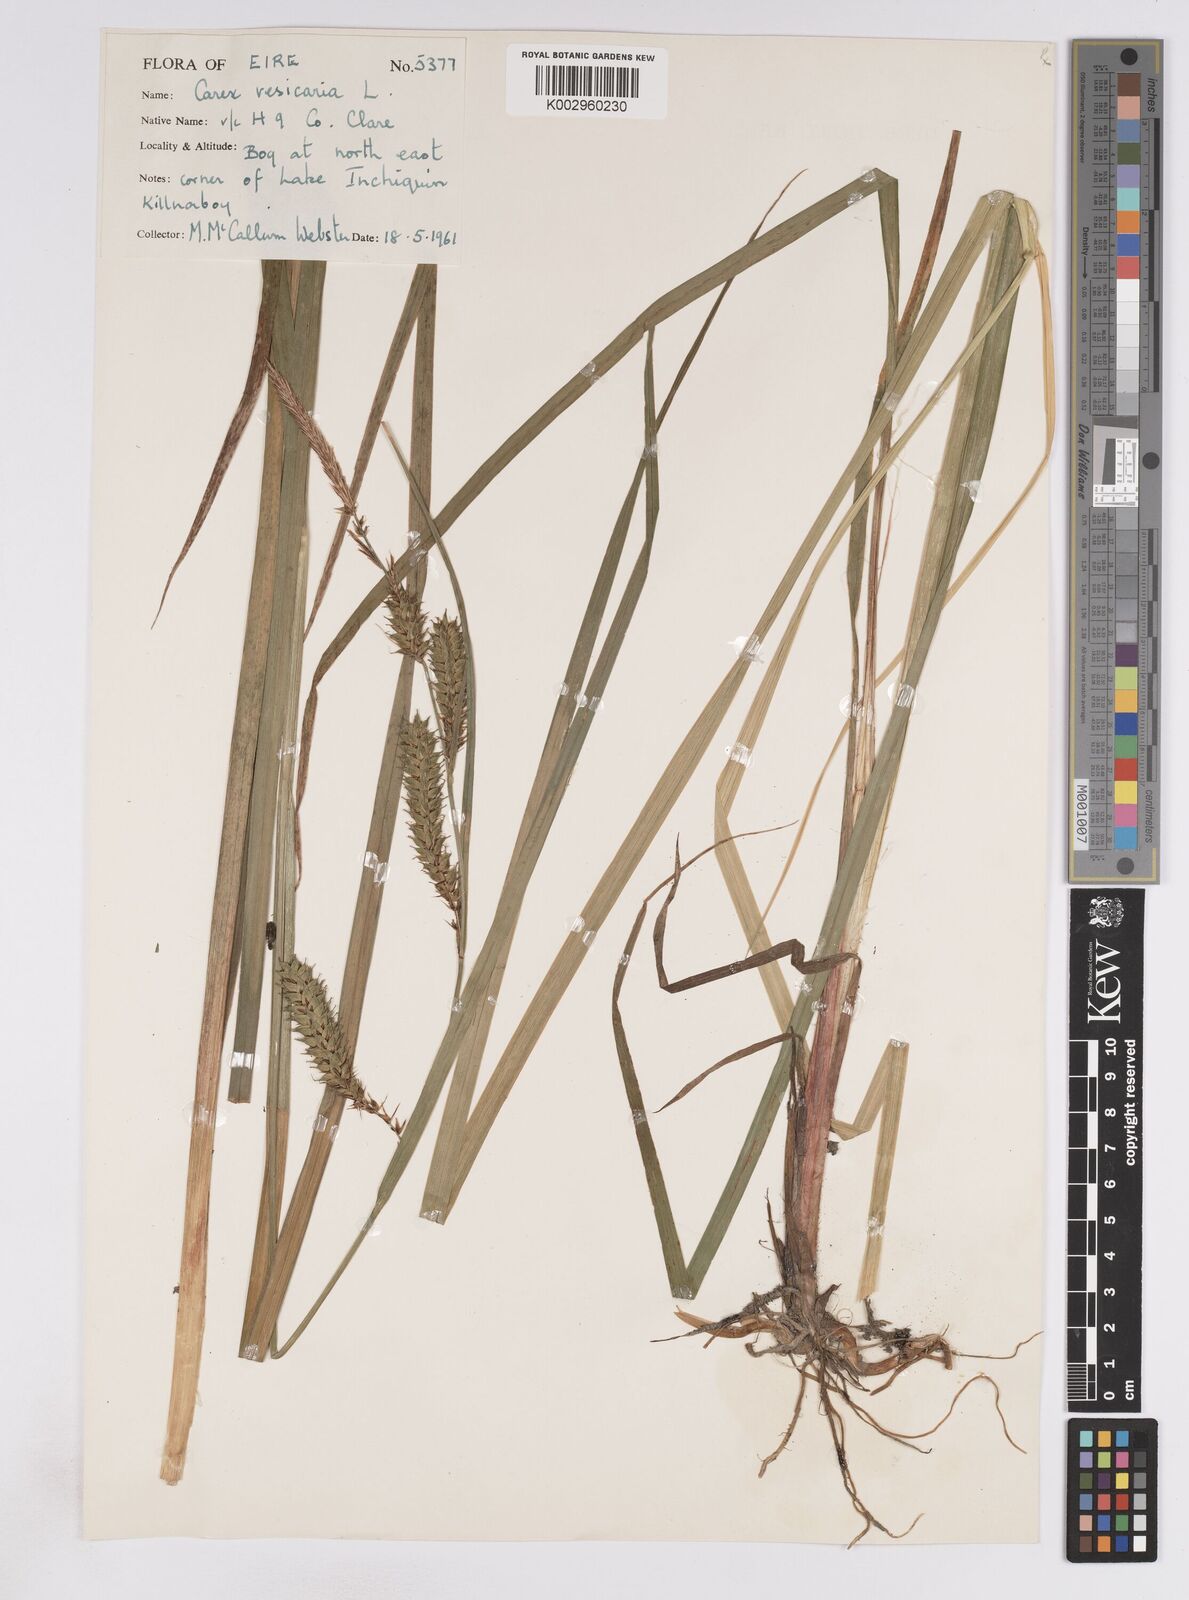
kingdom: Plantae
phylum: Tracheophyta
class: Liliopsida
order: Poales
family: Cyperaceae
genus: Carex
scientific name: Carex vesicaria
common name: Bladder-sedge
